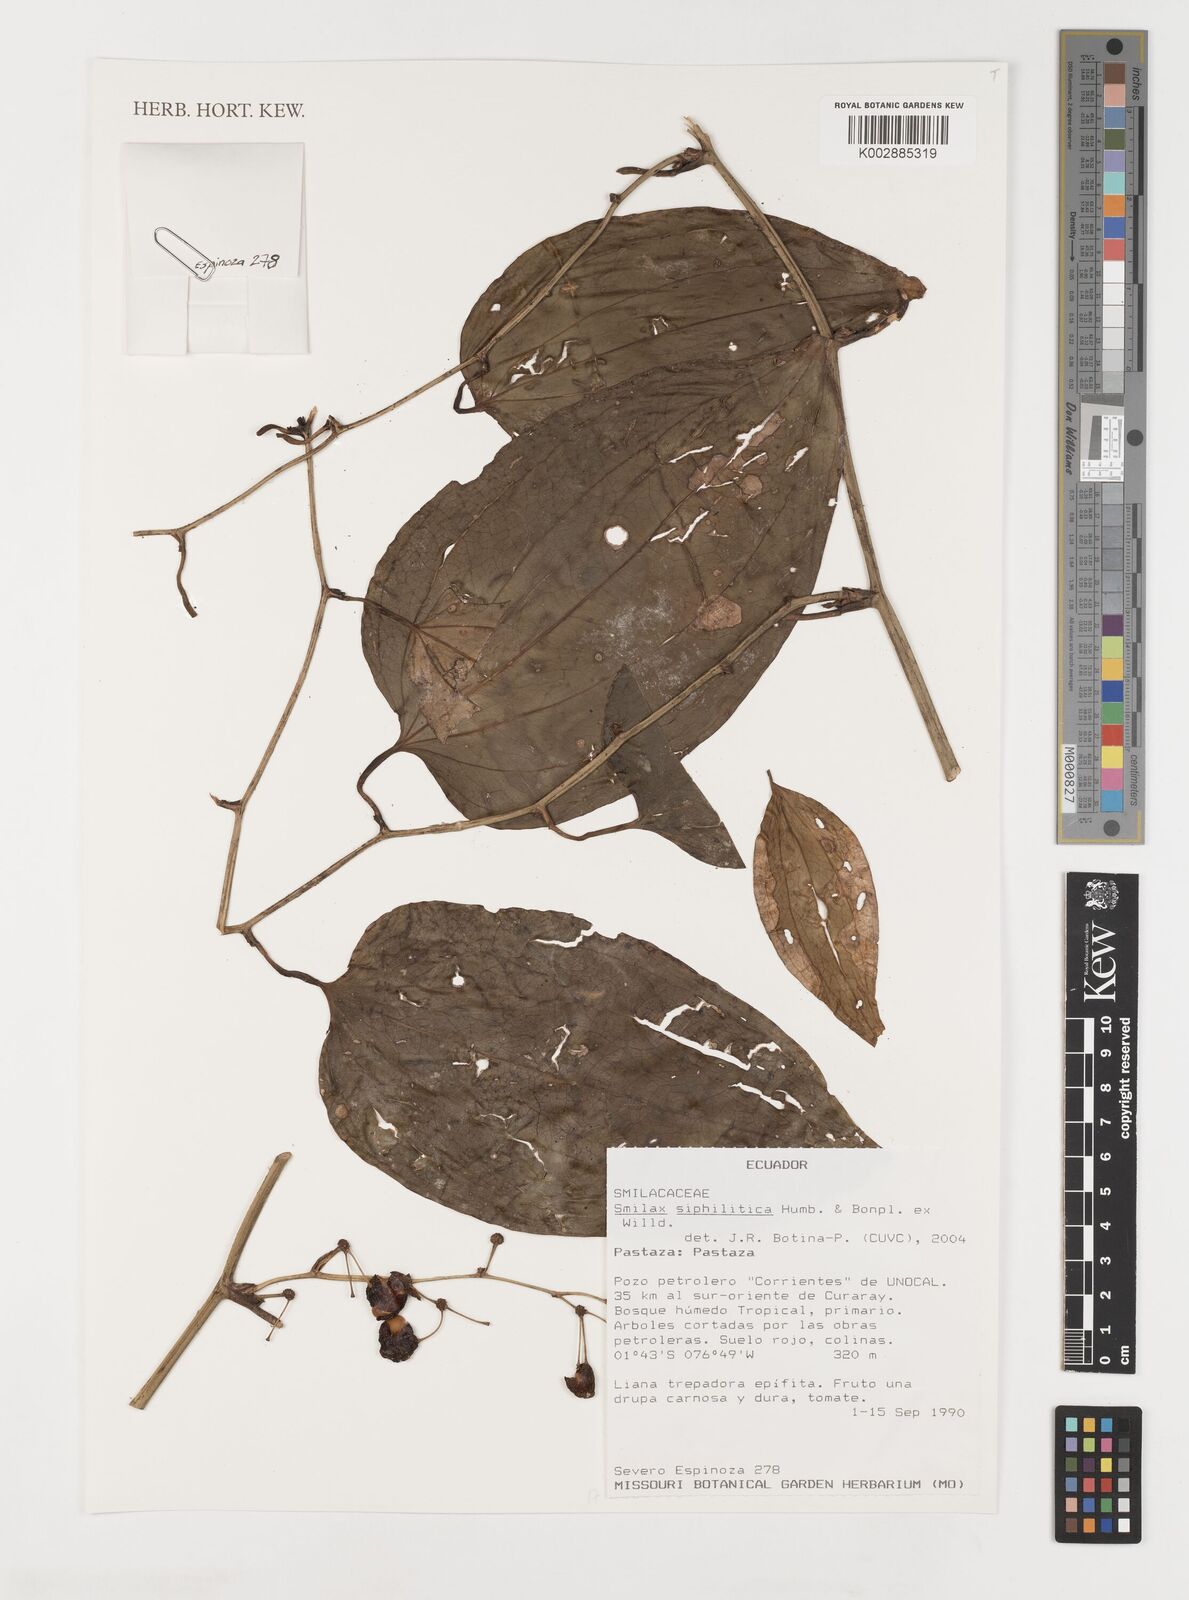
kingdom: Plantae
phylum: Tracheophyta
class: Liliopsida
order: Liliales
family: Smilacaceae
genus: Smilax
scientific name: Smilax
